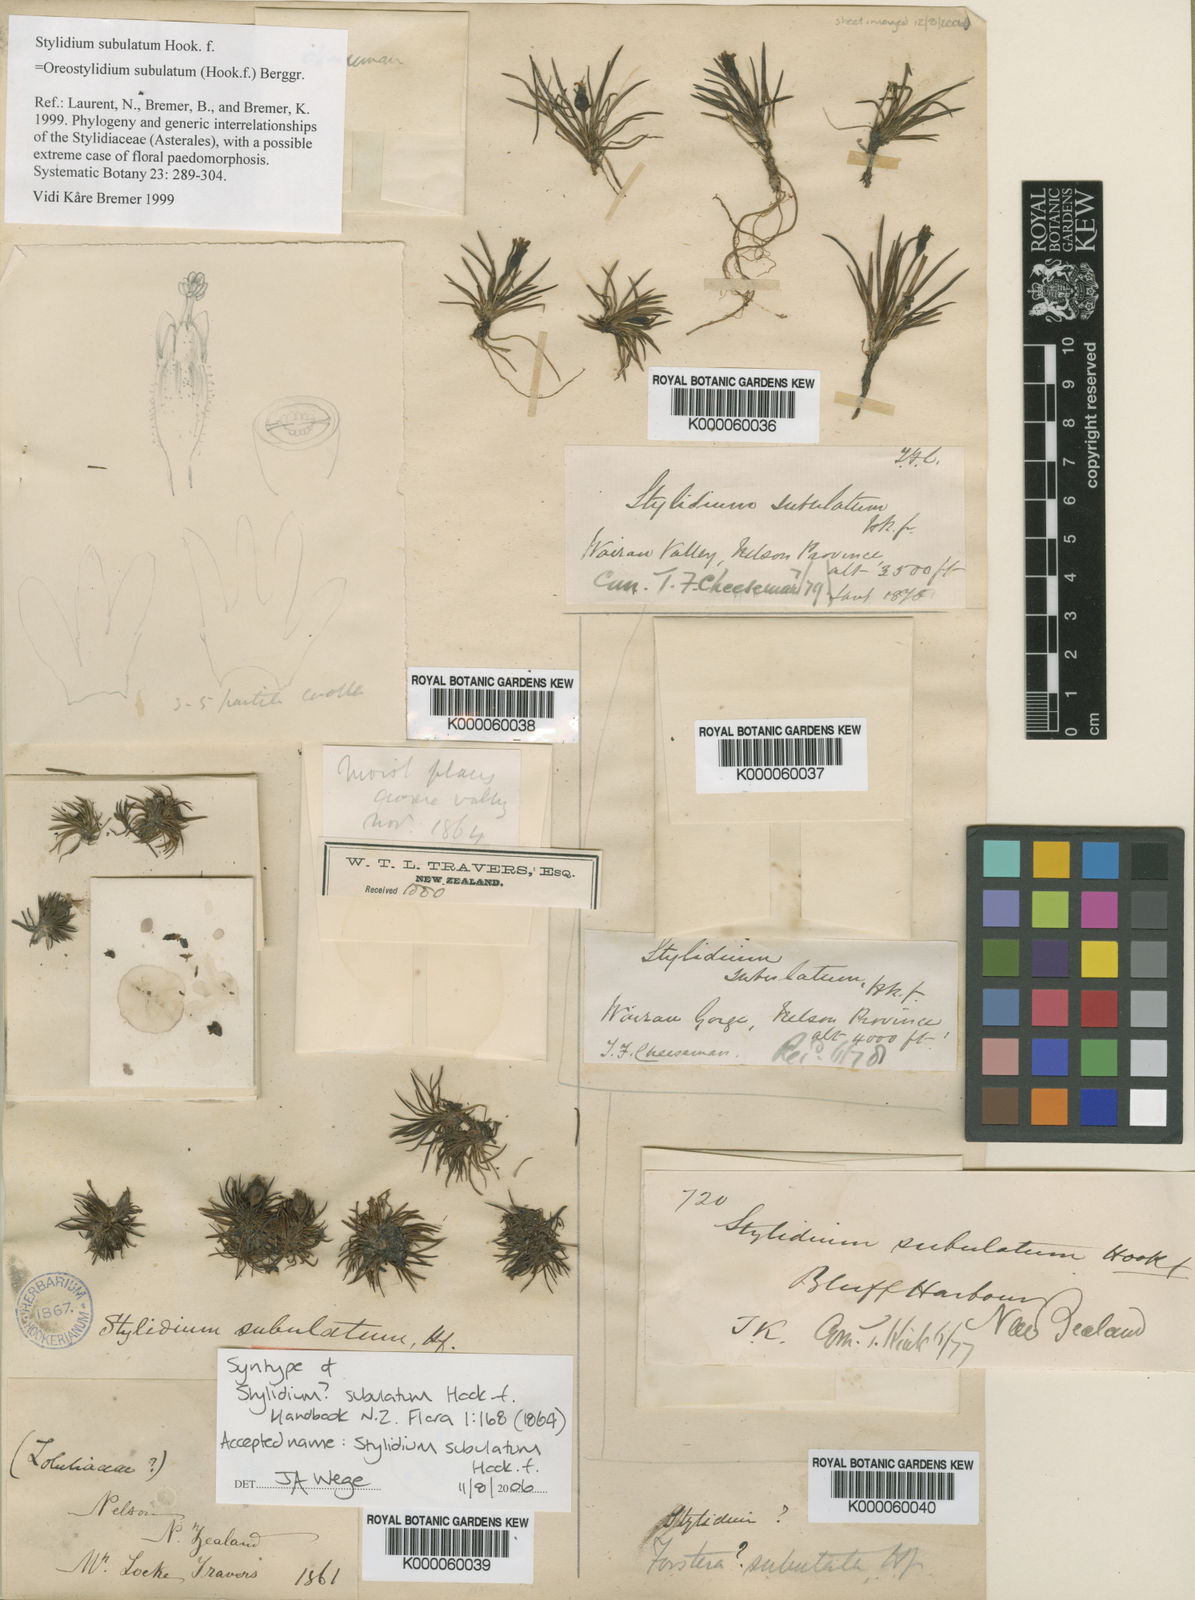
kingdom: Plantae
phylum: Tracheophyta
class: Magnoliopsida
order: Asterales
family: Stylidiaceae
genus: Oreostylidium
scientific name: Oreostylidium subulatum
